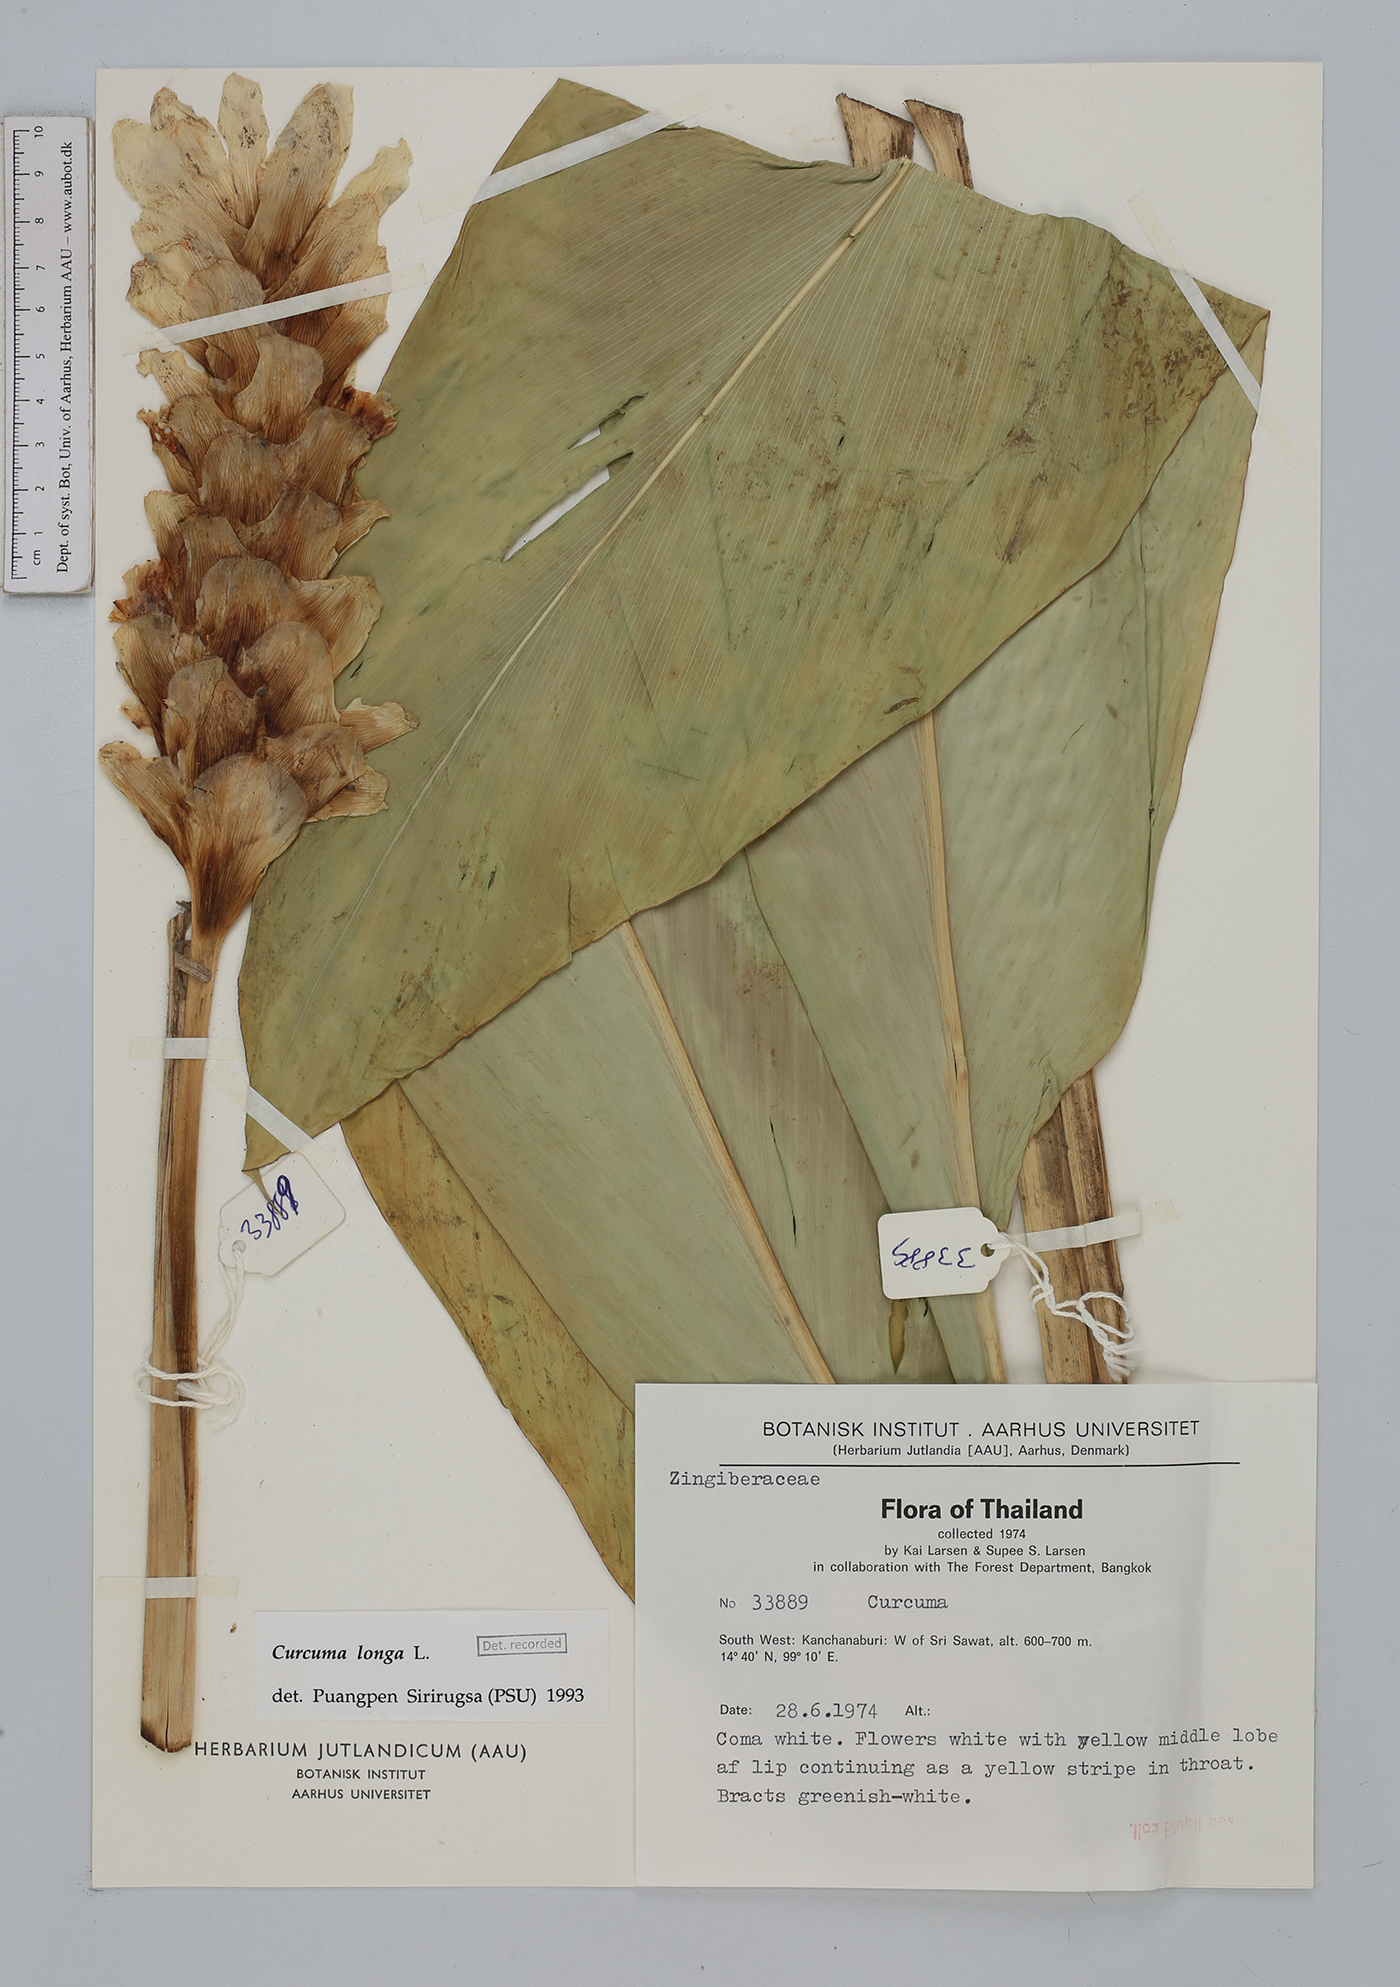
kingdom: Plantae
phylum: Tracheophyta
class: Liliopsida
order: Zingiberales
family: Zingiberaceae
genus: Curcuma
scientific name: Curcuma longa
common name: Turmeric
